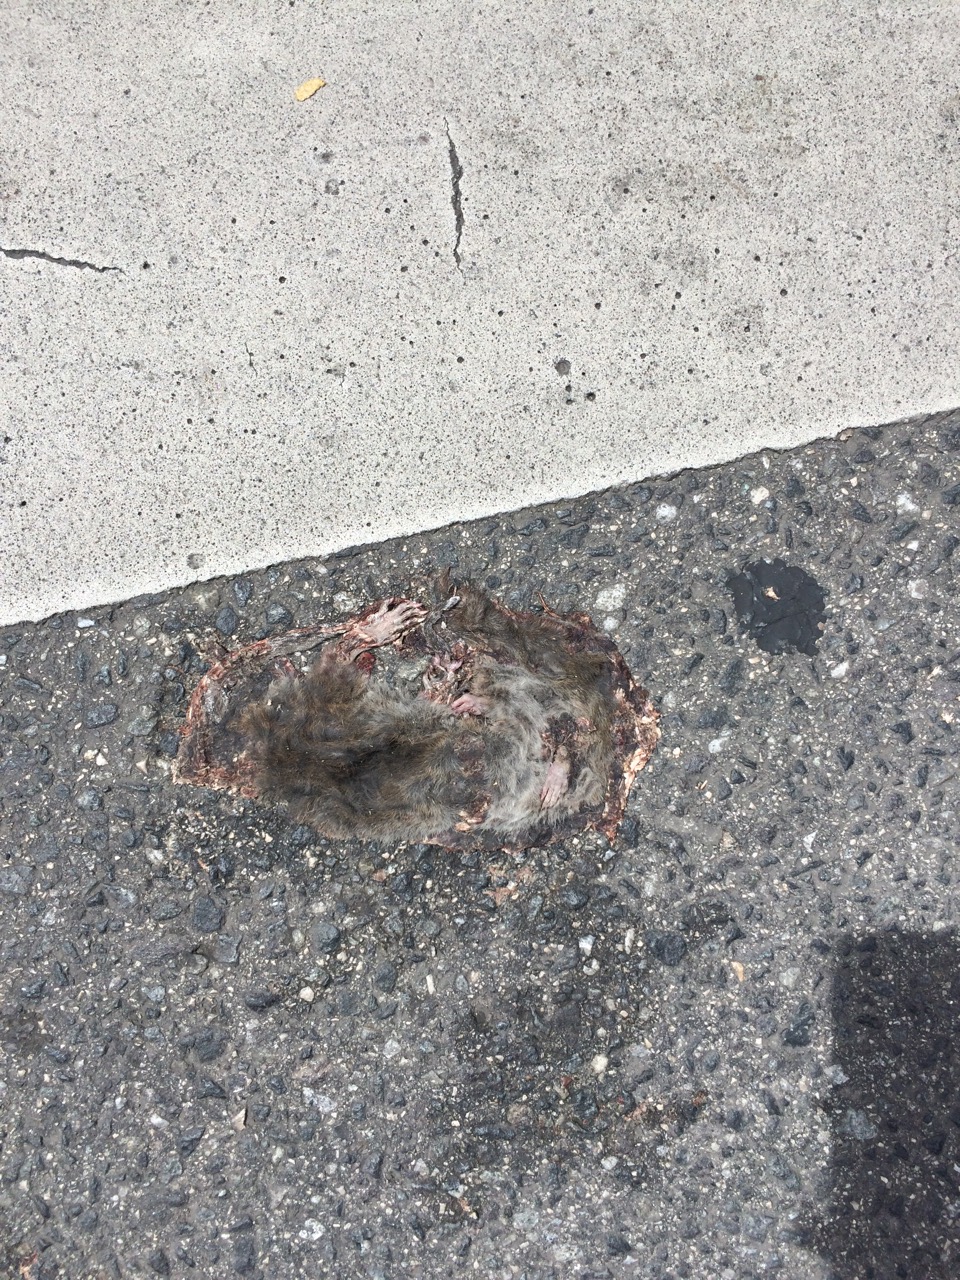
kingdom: Animalia
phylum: Chordata
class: Mammalia
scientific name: Mammalia
